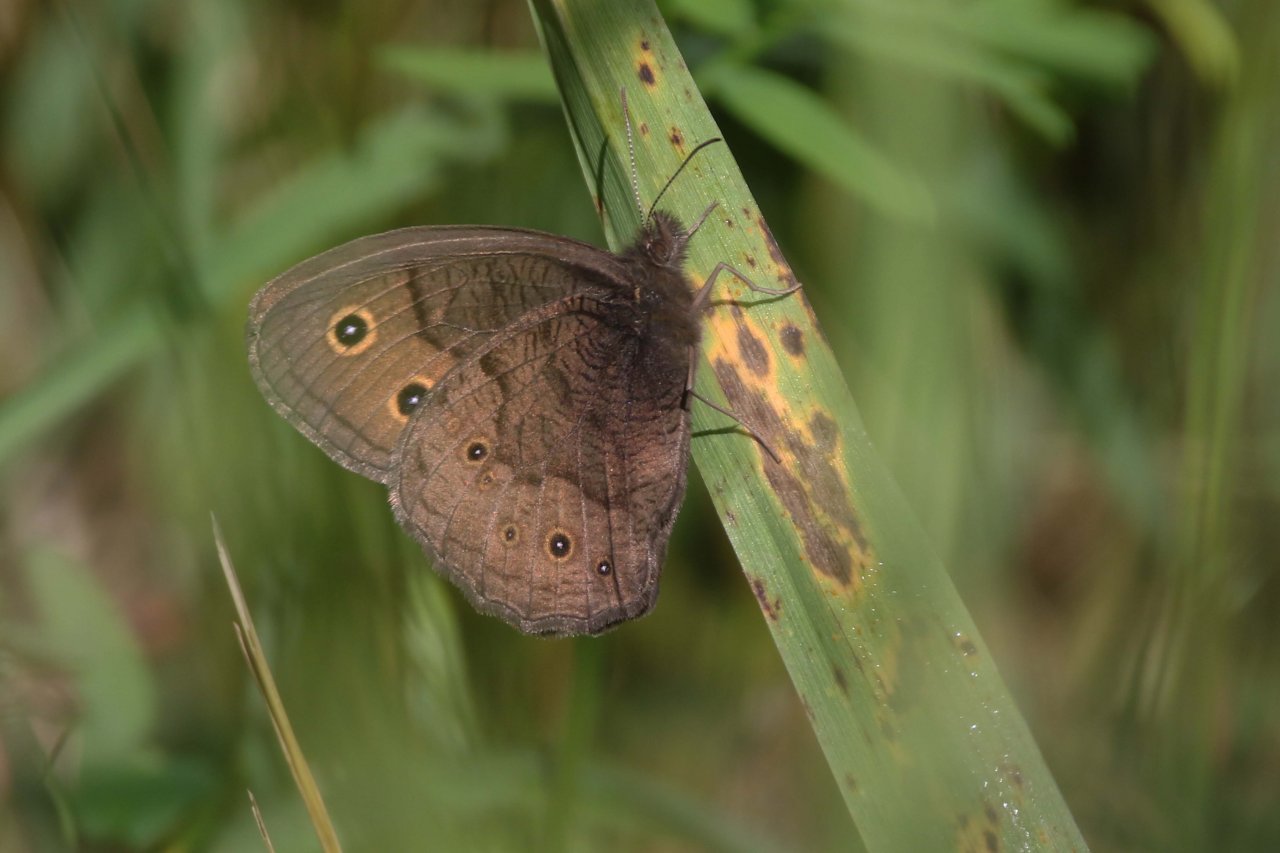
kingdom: Animalia
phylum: Arthropoda
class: Insecta
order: Lepidoptera
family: Nymphalidae
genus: Cercyonis
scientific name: Cercyonis pegala
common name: Common Wood-Nymph
